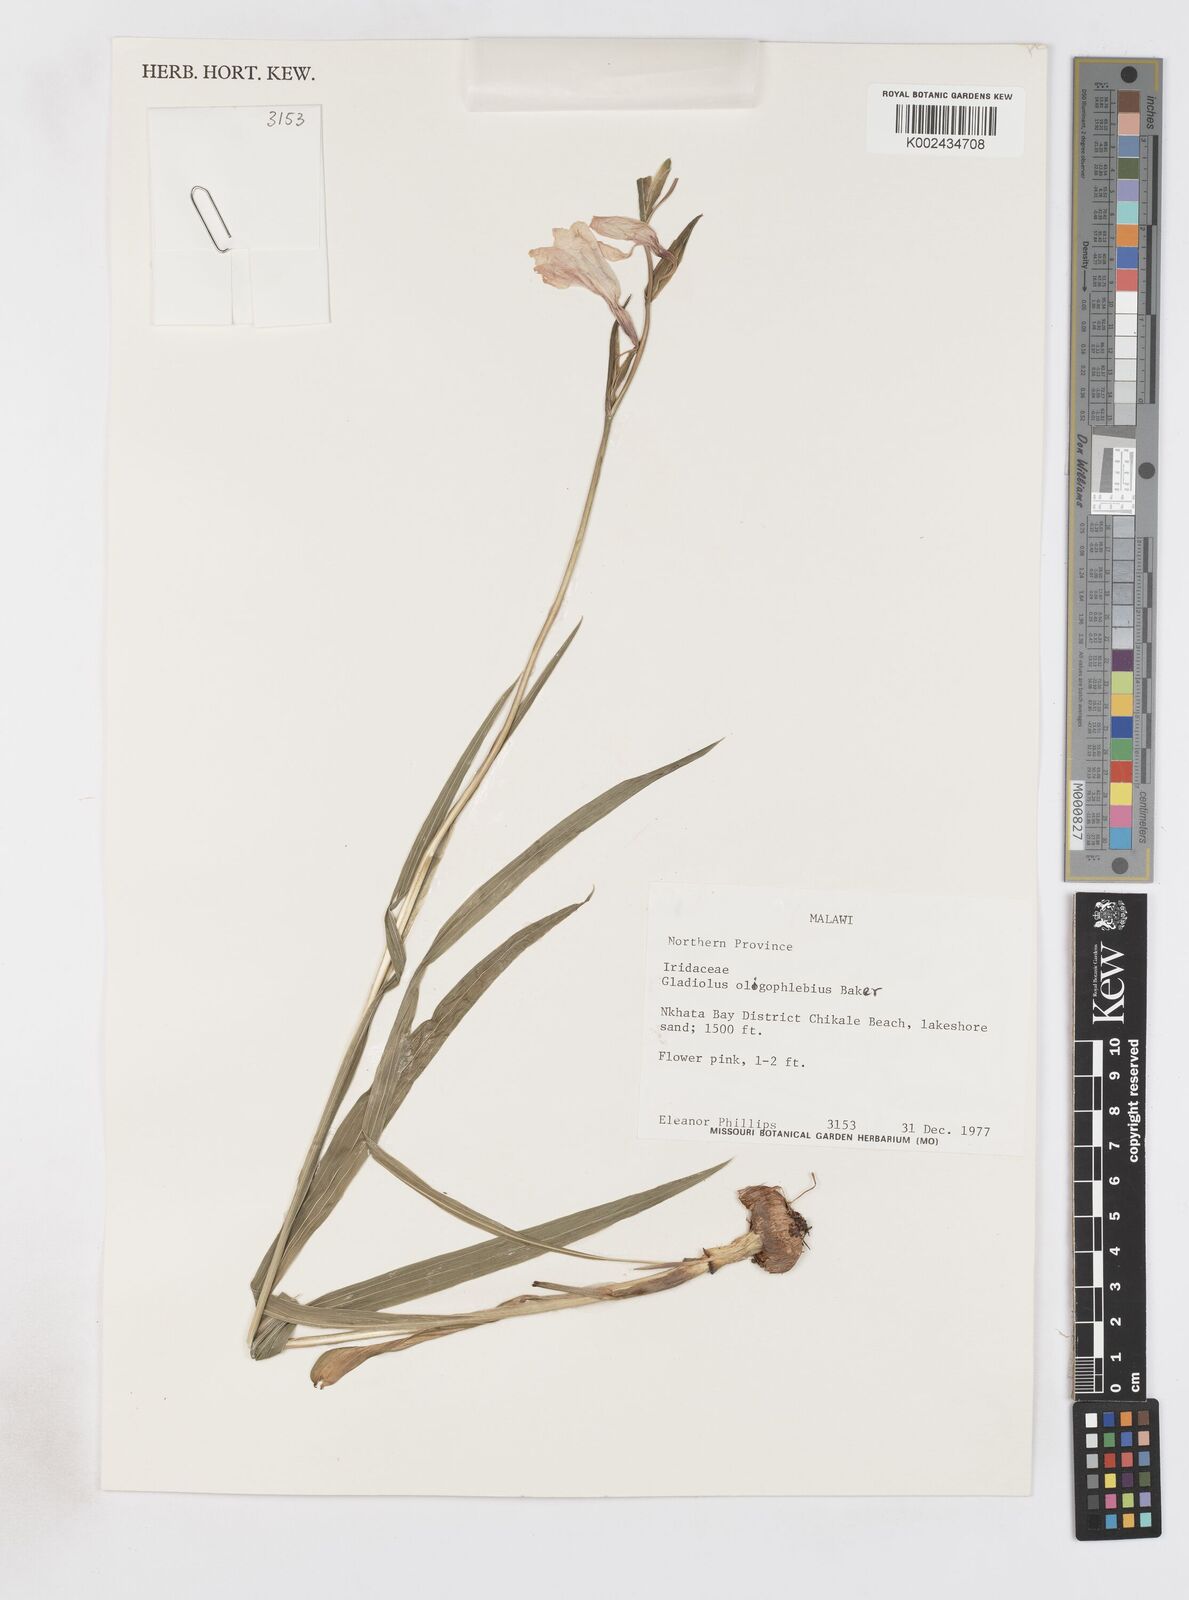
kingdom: Plantae
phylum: Tracheophyta
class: Liliopsida
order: Asparagales
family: Iridaceae
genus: Gladiolus
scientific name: Gladiolus oligophlebius
